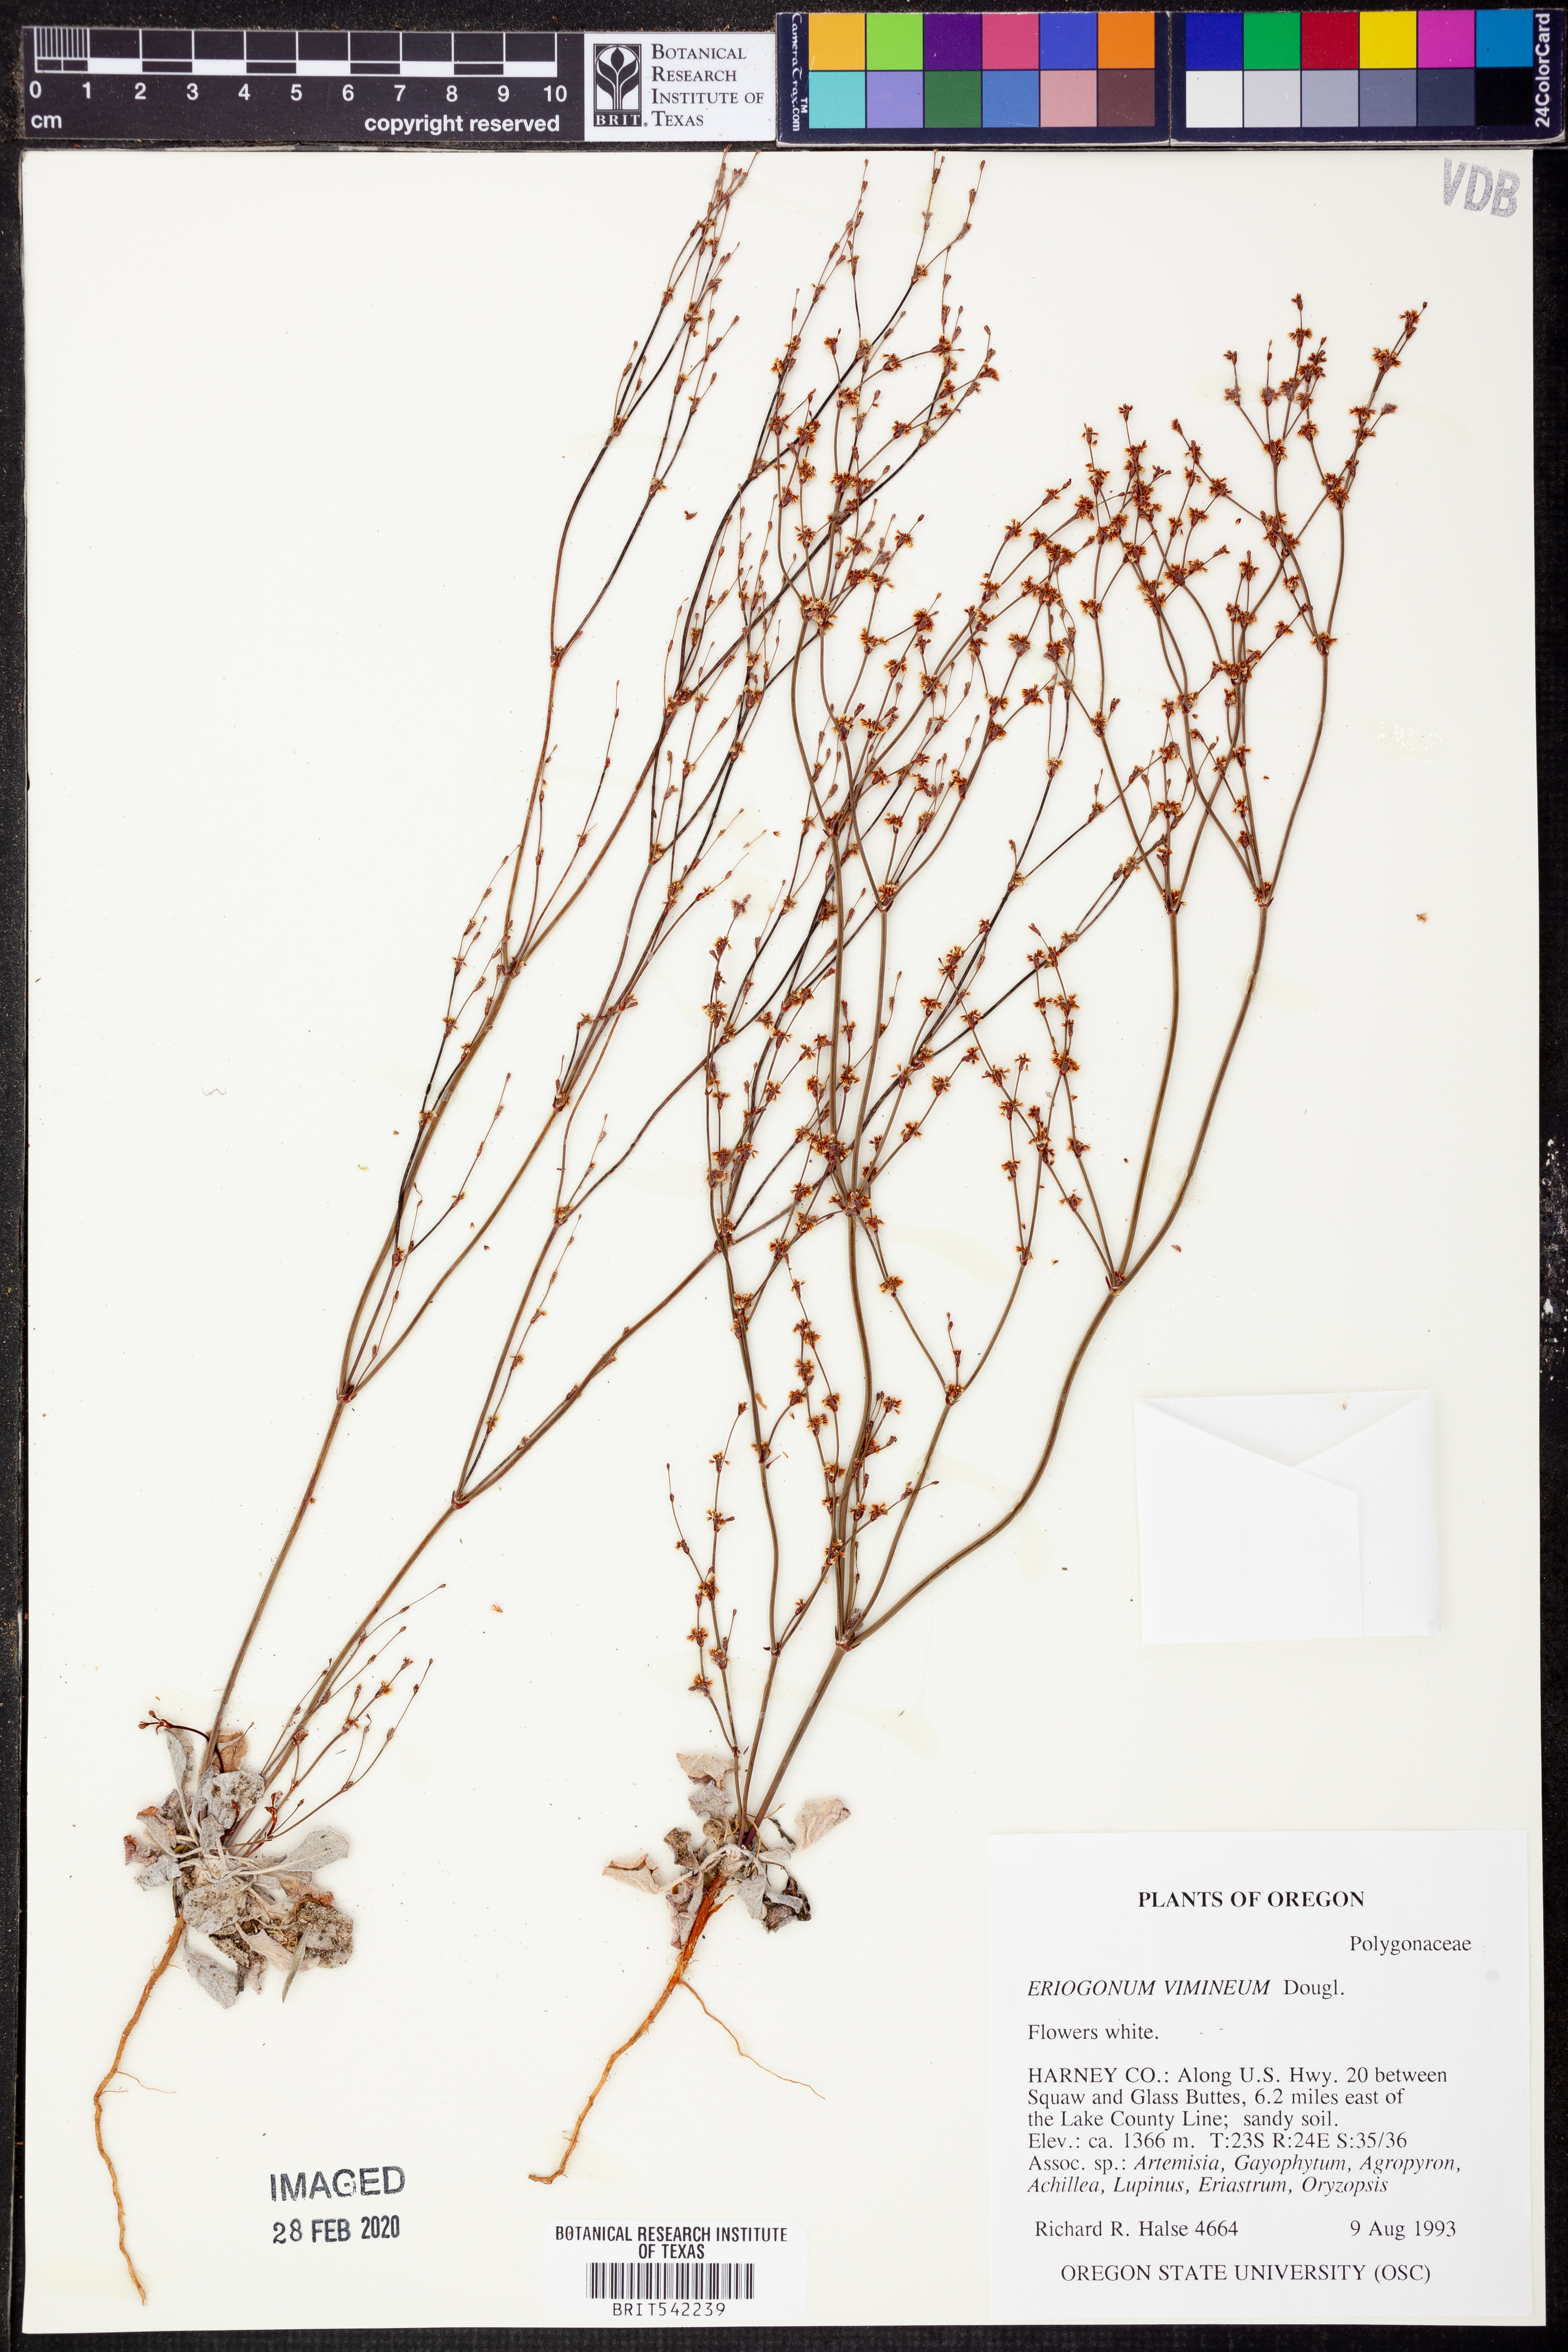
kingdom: Plantae
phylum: Tracheophyta
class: Magnoliopsida
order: Caryophyllales
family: Polygonaceae
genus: Eriogonum
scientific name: Eriogonum vimineum
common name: Wicker buckwheat
